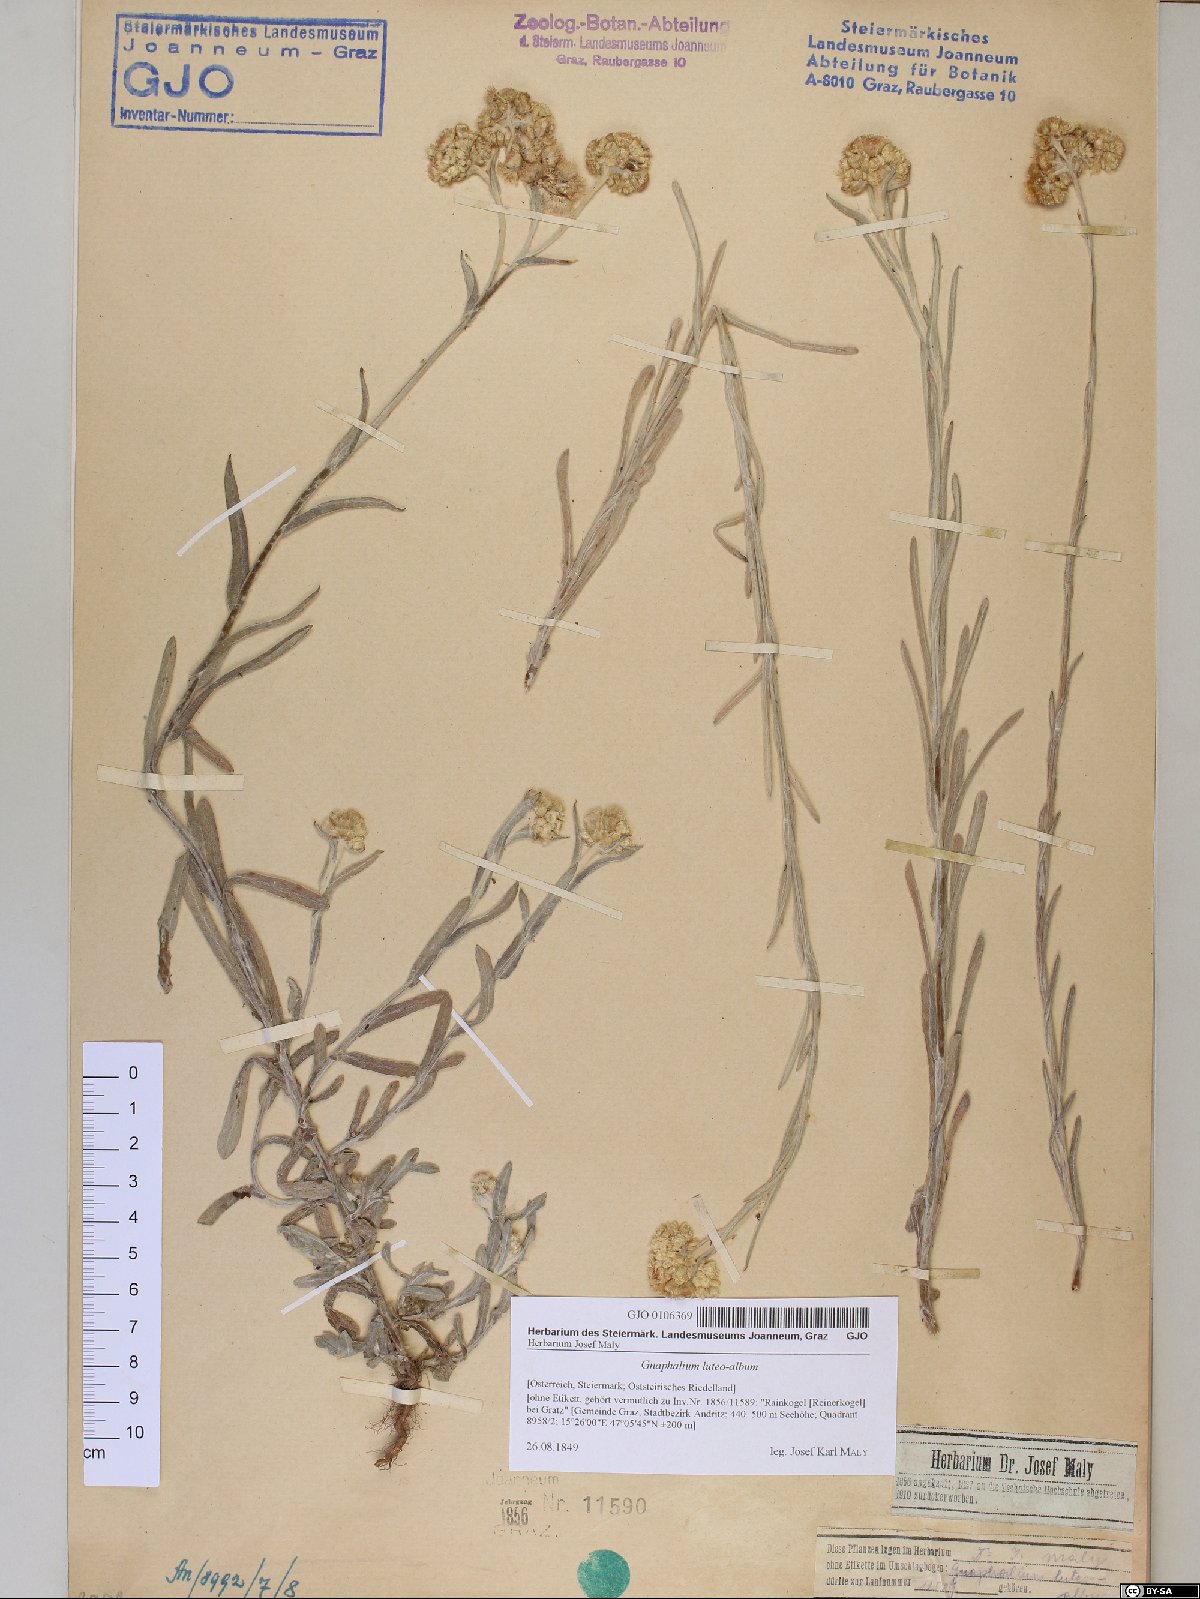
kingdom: Plantae
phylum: Tracheophyta
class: Magnoliopsida
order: Asterales
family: Asteraceae
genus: Helichrysum
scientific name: Helichrysum luteoalbum
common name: Daisy
